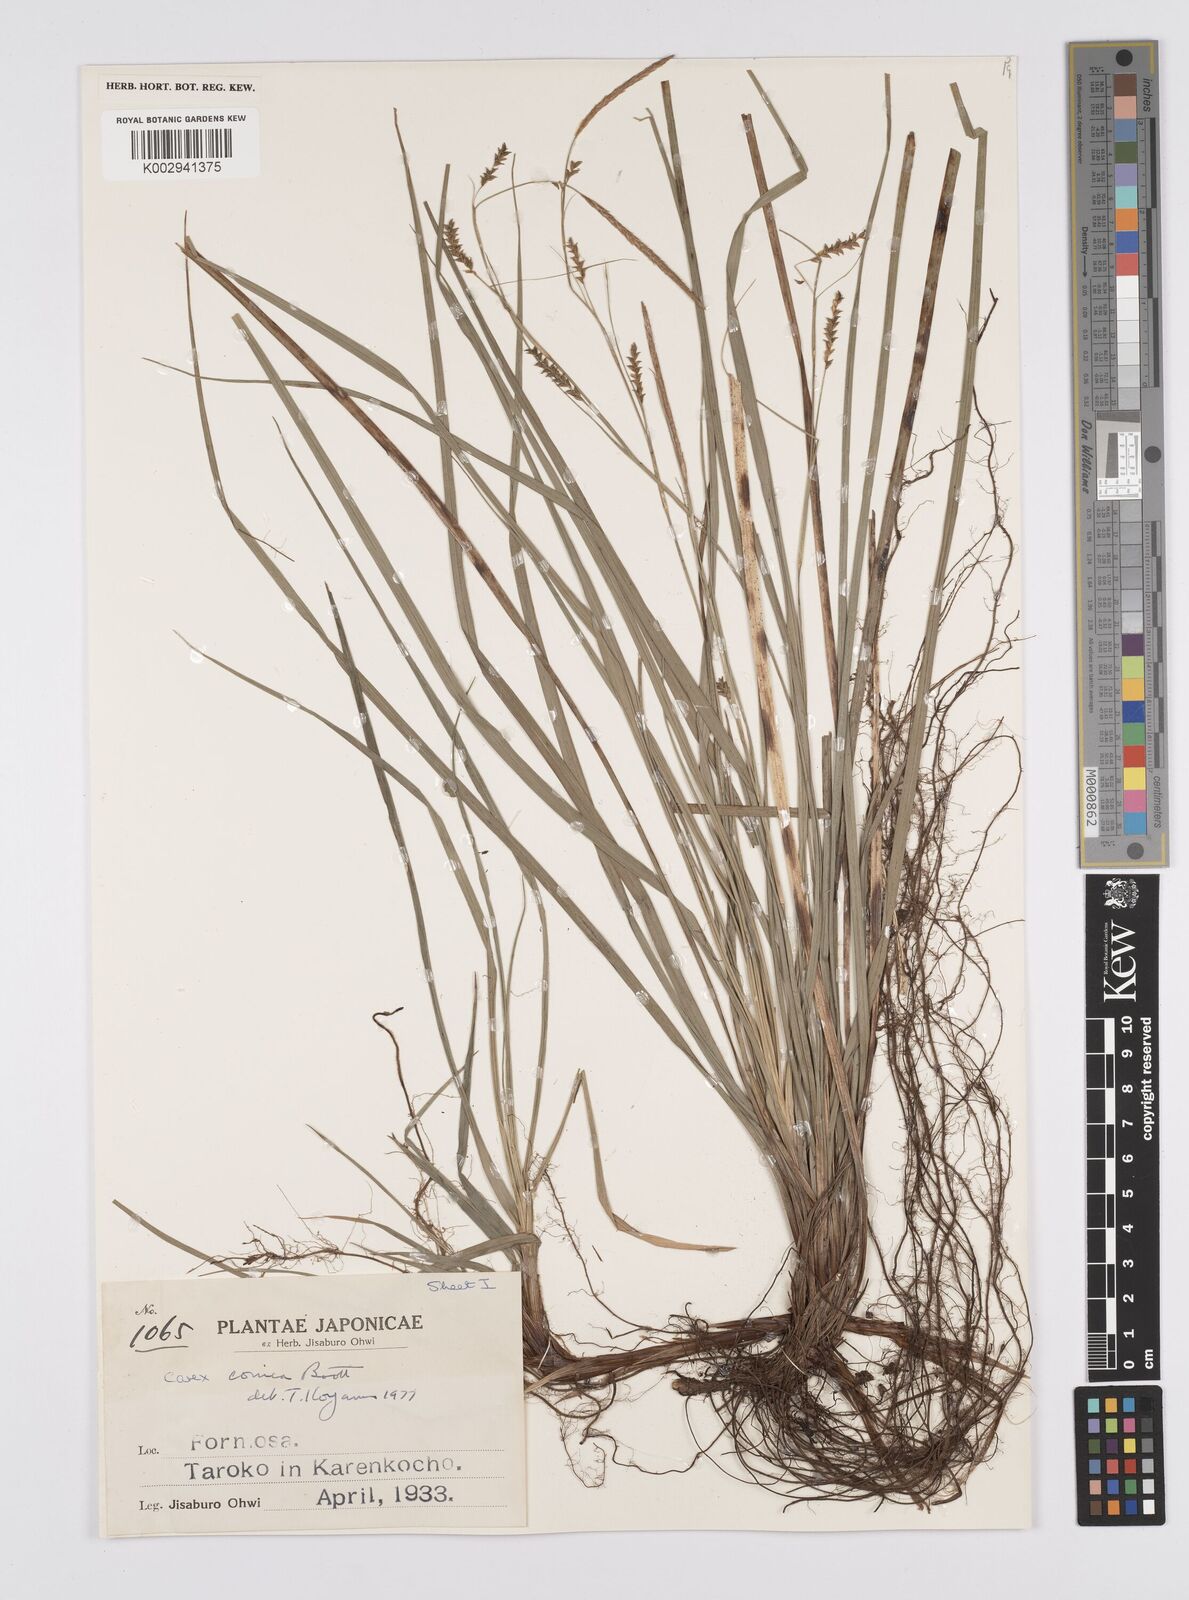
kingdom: Plantae
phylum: Tracheophyta
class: Liliopsida
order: Poales
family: Cyperaceae
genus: Carex
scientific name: Carex conica
